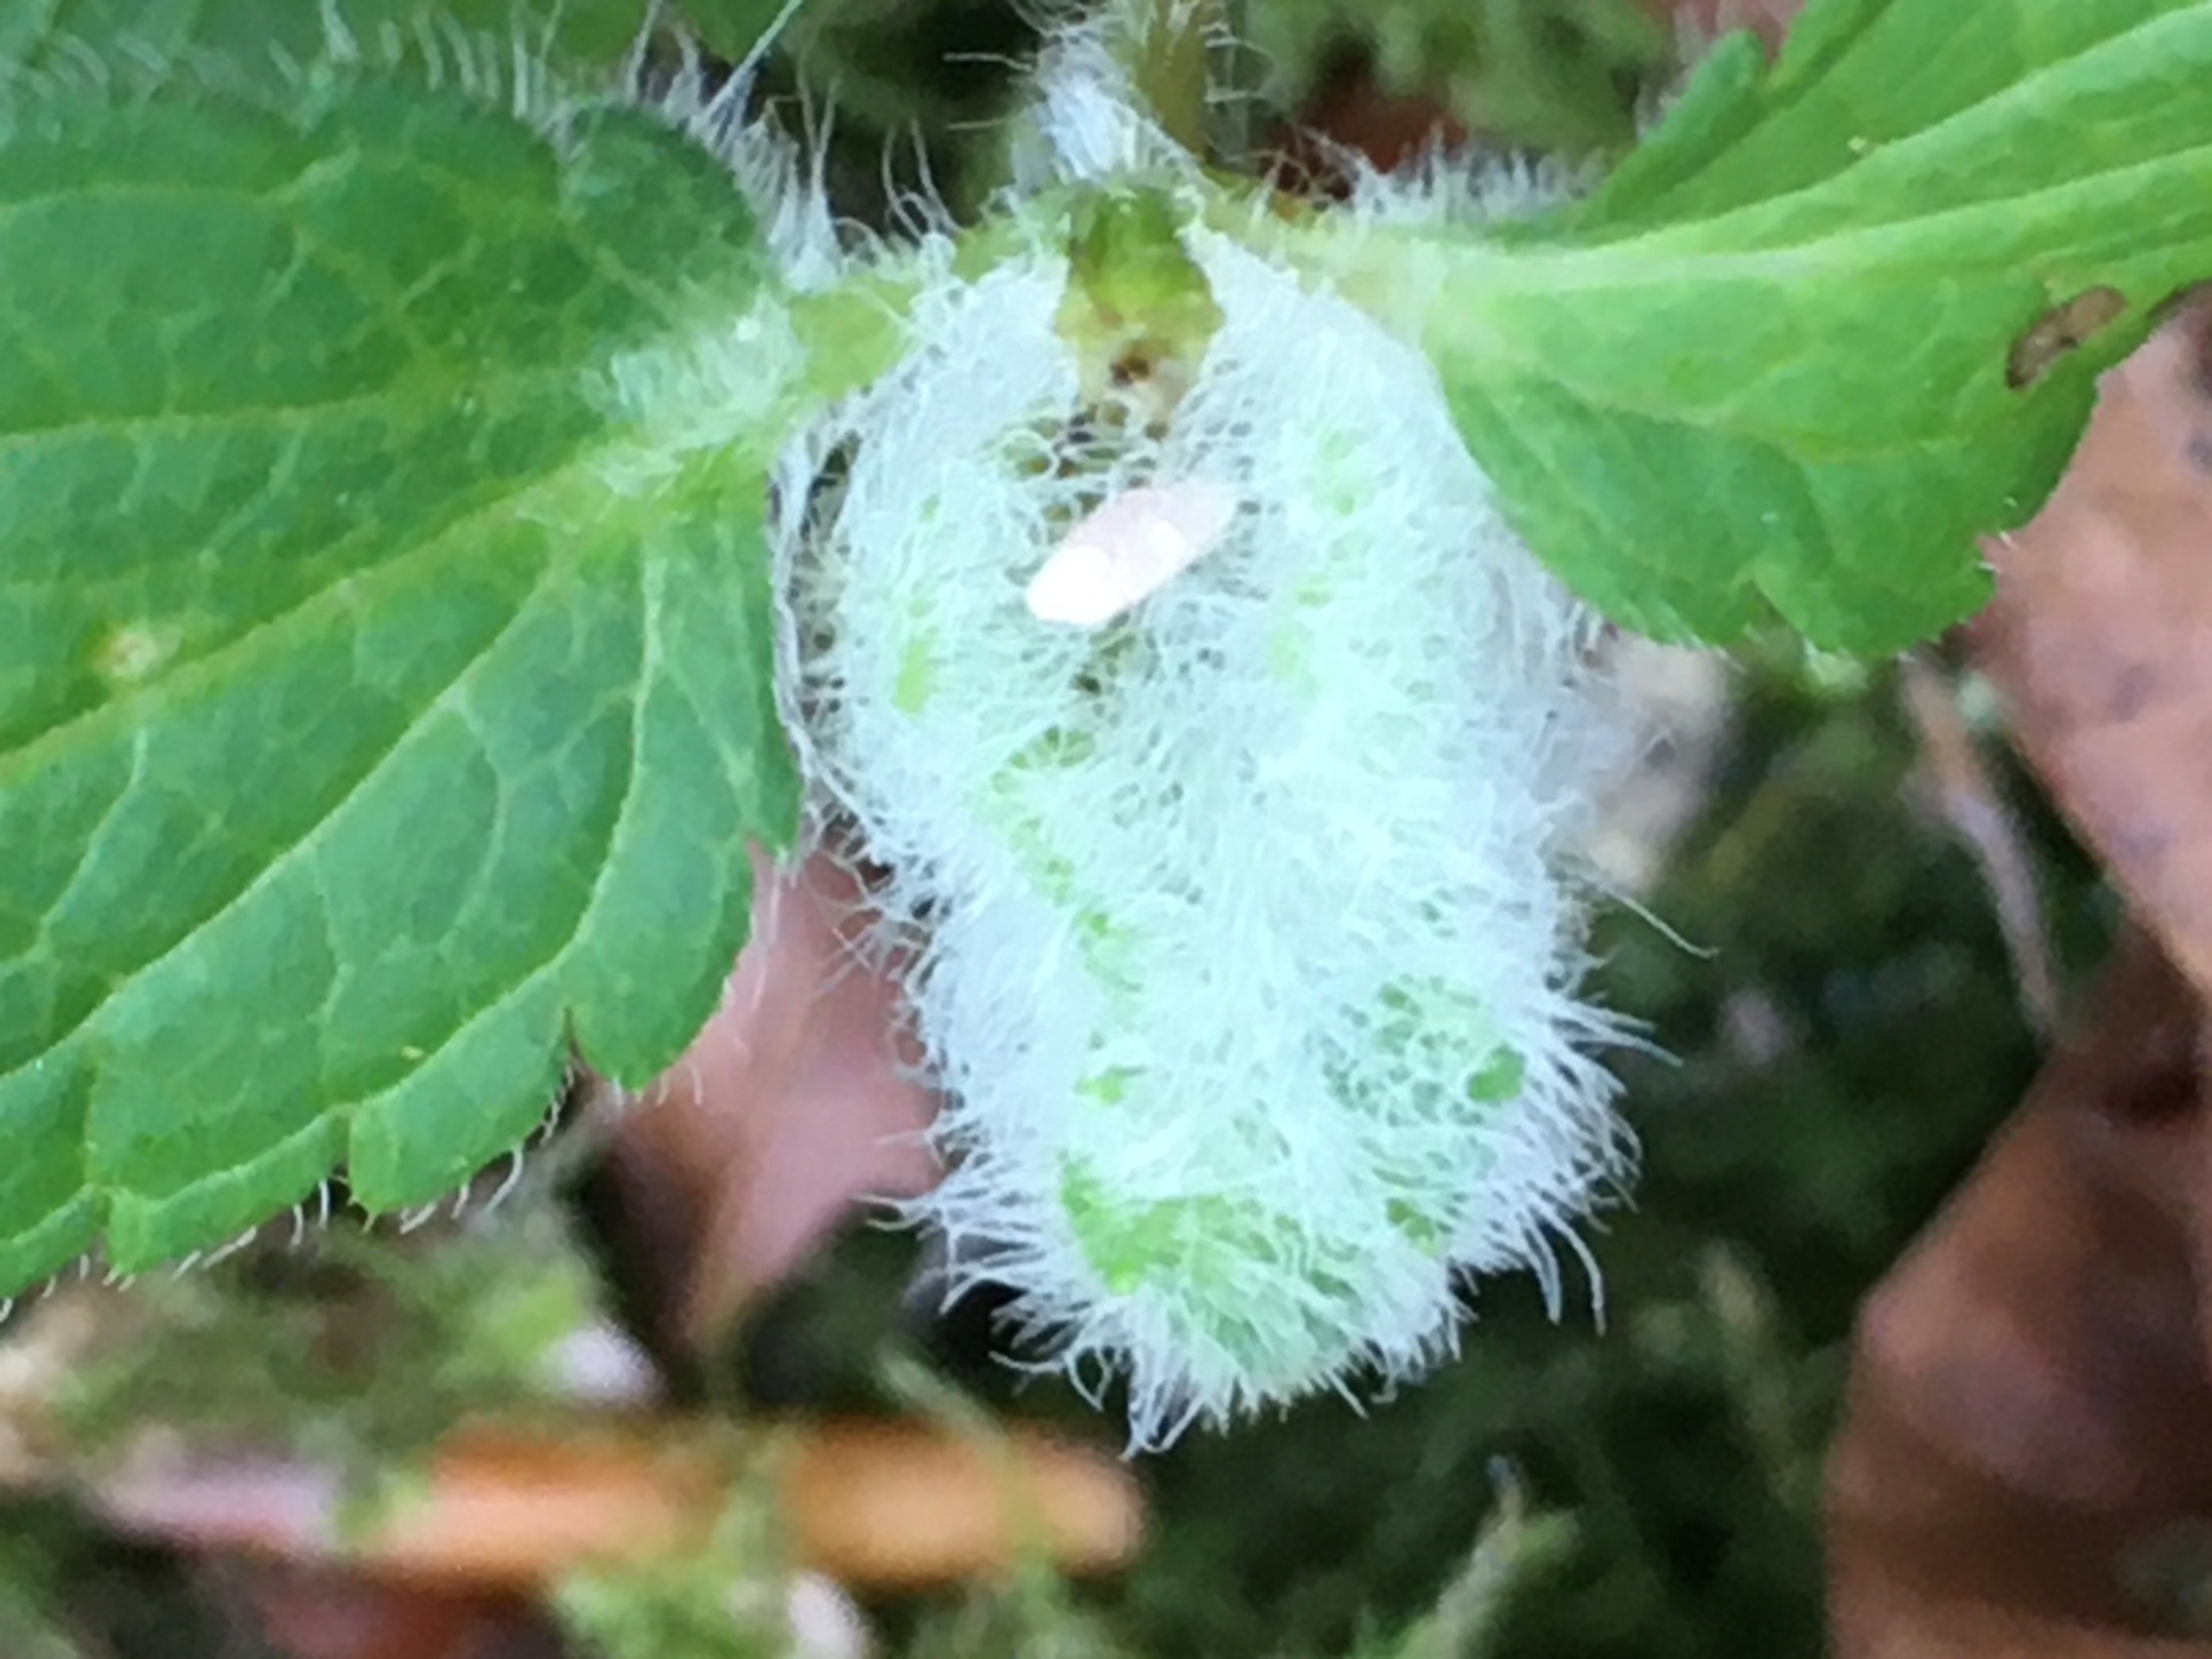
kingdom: Animalia
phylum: Arthropoda
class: Insecta
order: Diptera
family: Cecidomyiidae
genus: Jaapiella
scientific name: Jaapiella veronicae
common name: Ærenprisgalmyg
